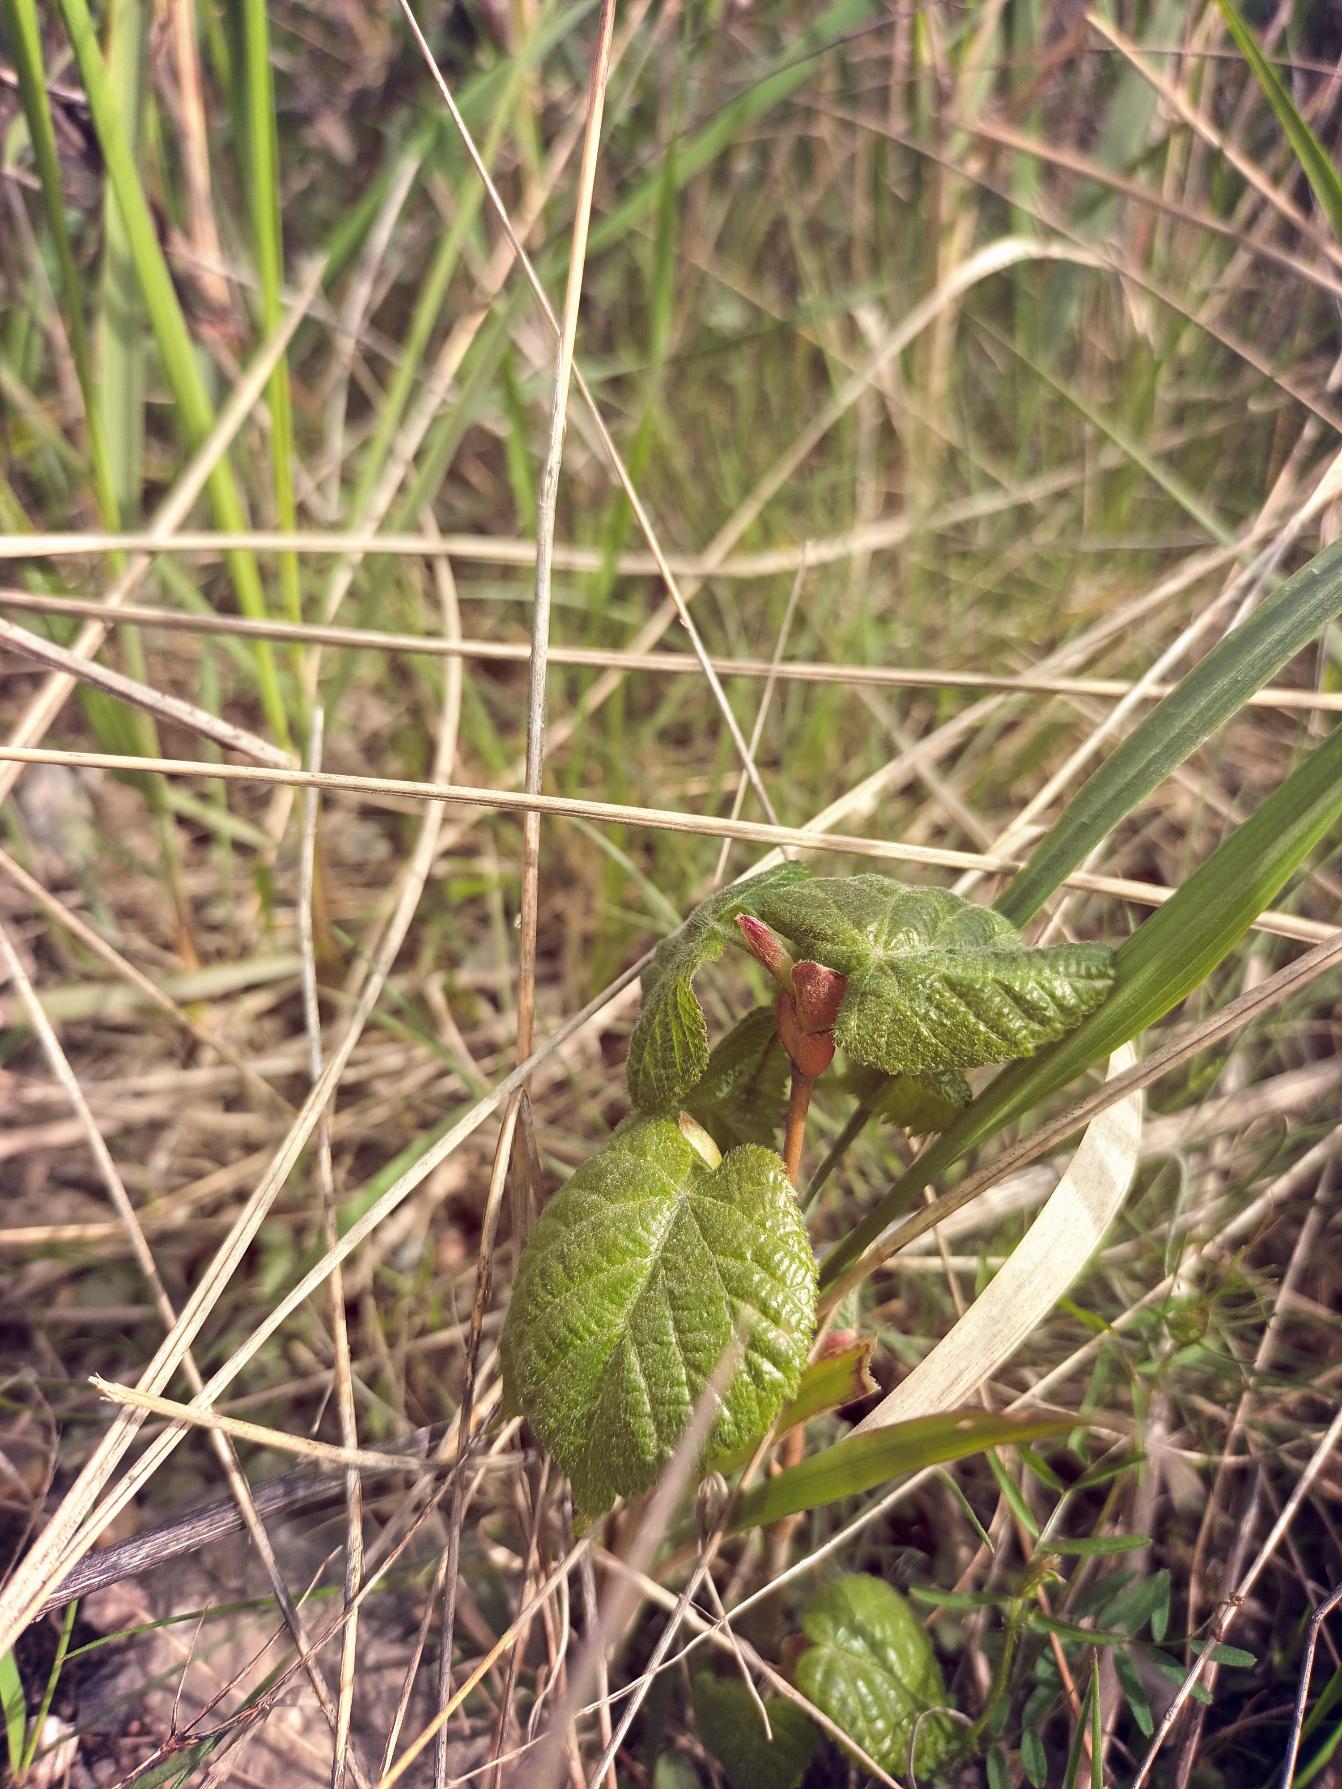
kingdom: Plantae
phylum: Tracheophyta
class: Magnoliopsida
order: Malvales
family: Malvaceae
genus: Tilia
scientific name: Tilia platyphyllos
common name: Storbladet lind
